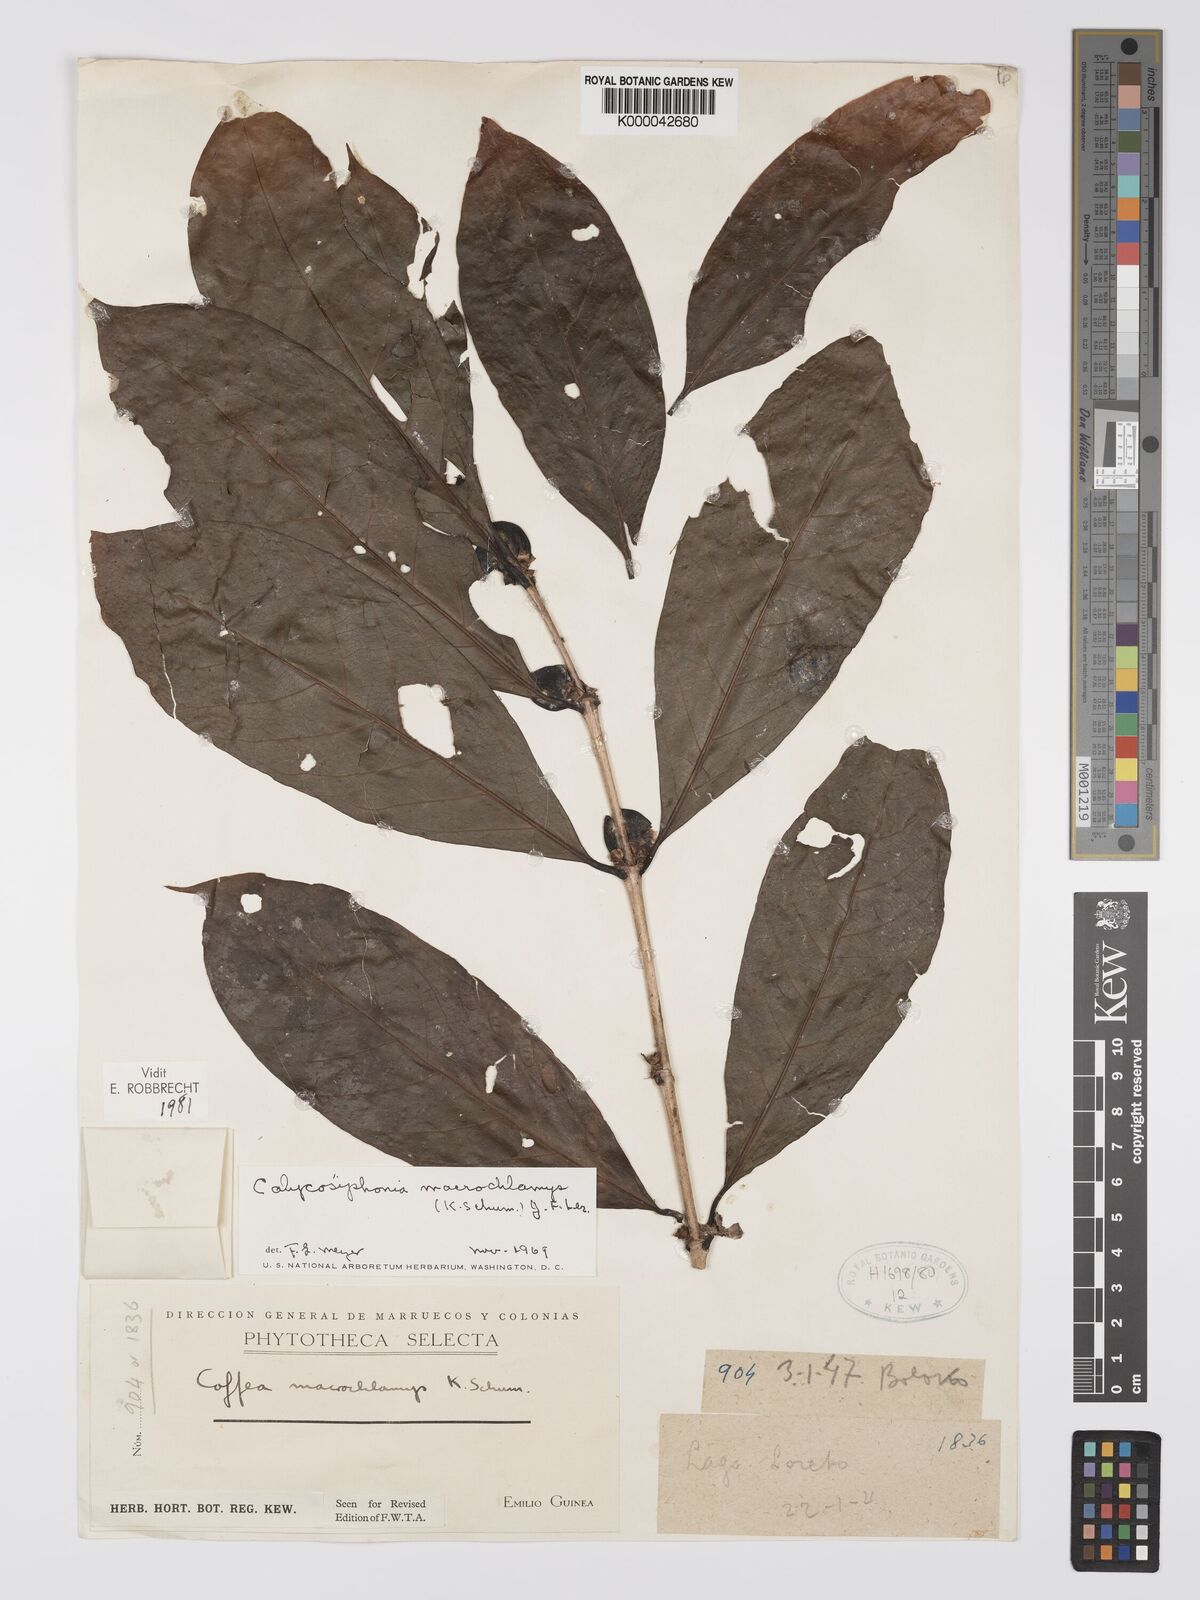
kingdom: Plantae
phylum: Tracheophyta
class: Magnoliopsida
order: Gentianales
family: Rubiaceae
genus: Calycosiphonia
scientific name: Calycosiphonia
